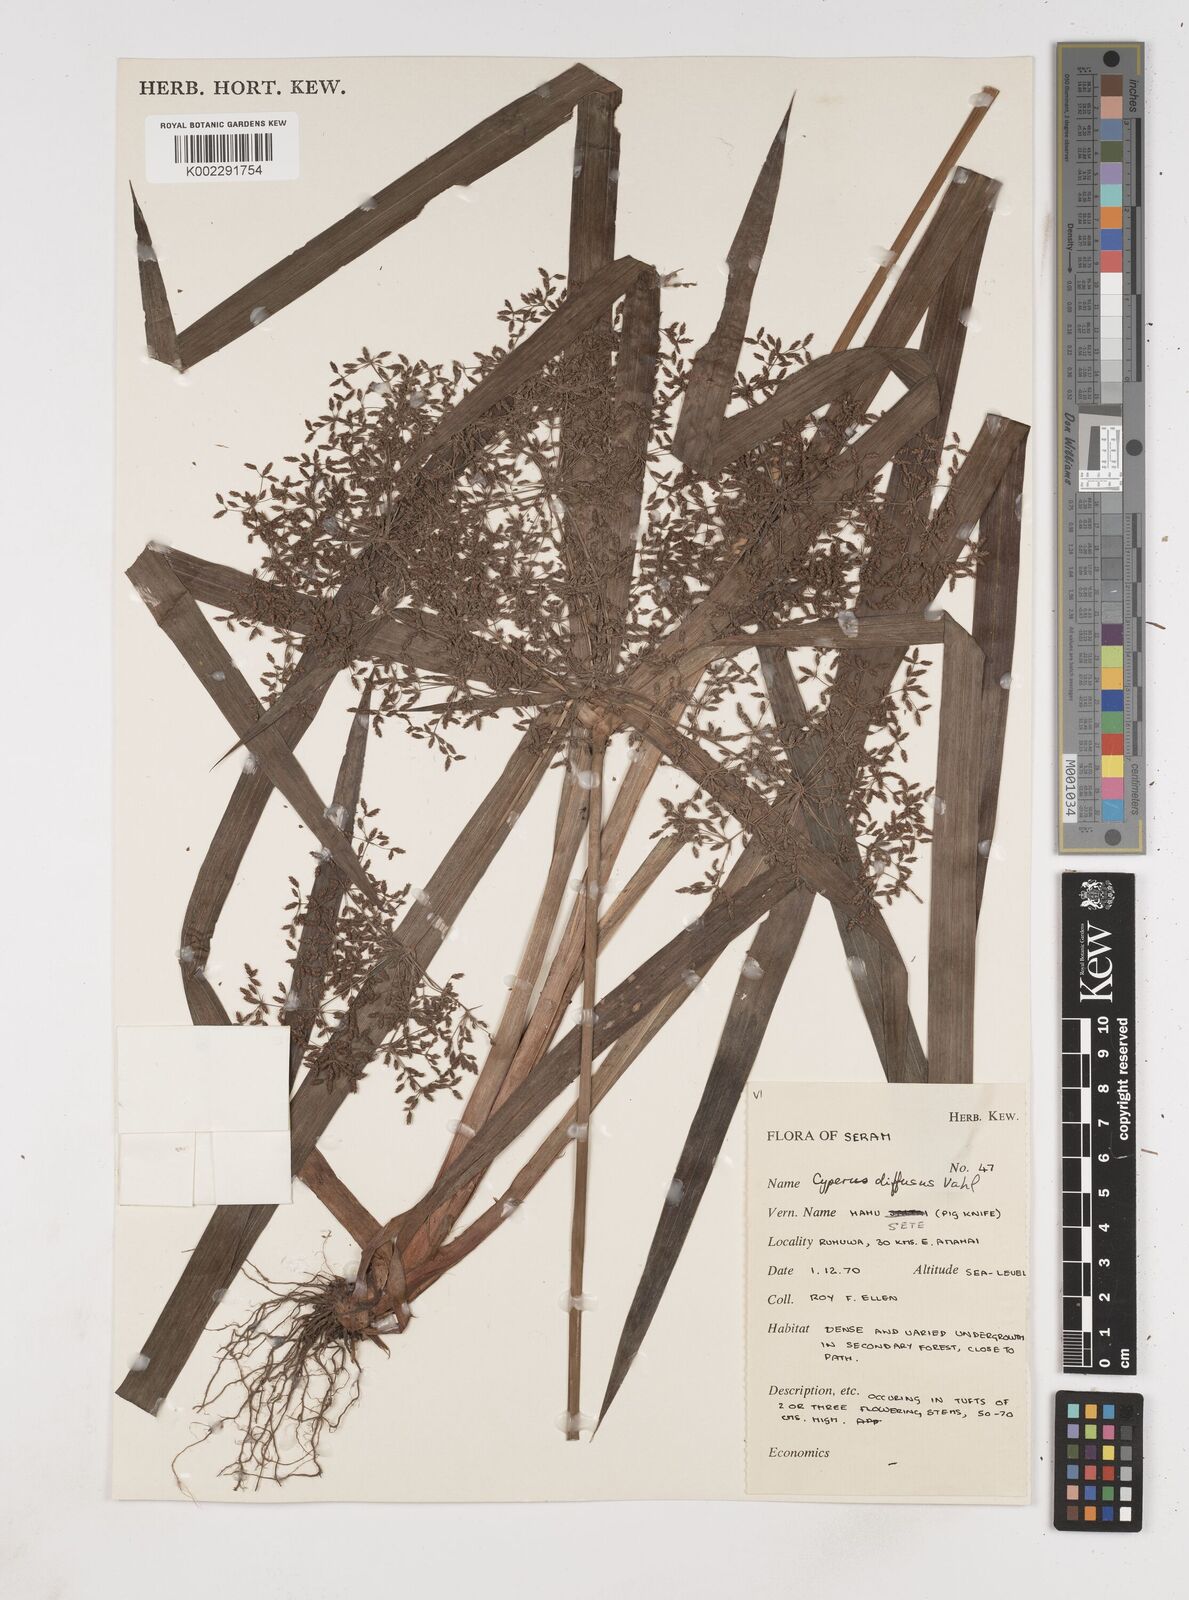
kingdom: Plantae
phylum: Tracheophyta
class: Liliopsida
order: Poales
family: Cyperaceae
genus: Cyperus
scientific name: Cyperus diffusus
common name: Dwarf umbrella grass
